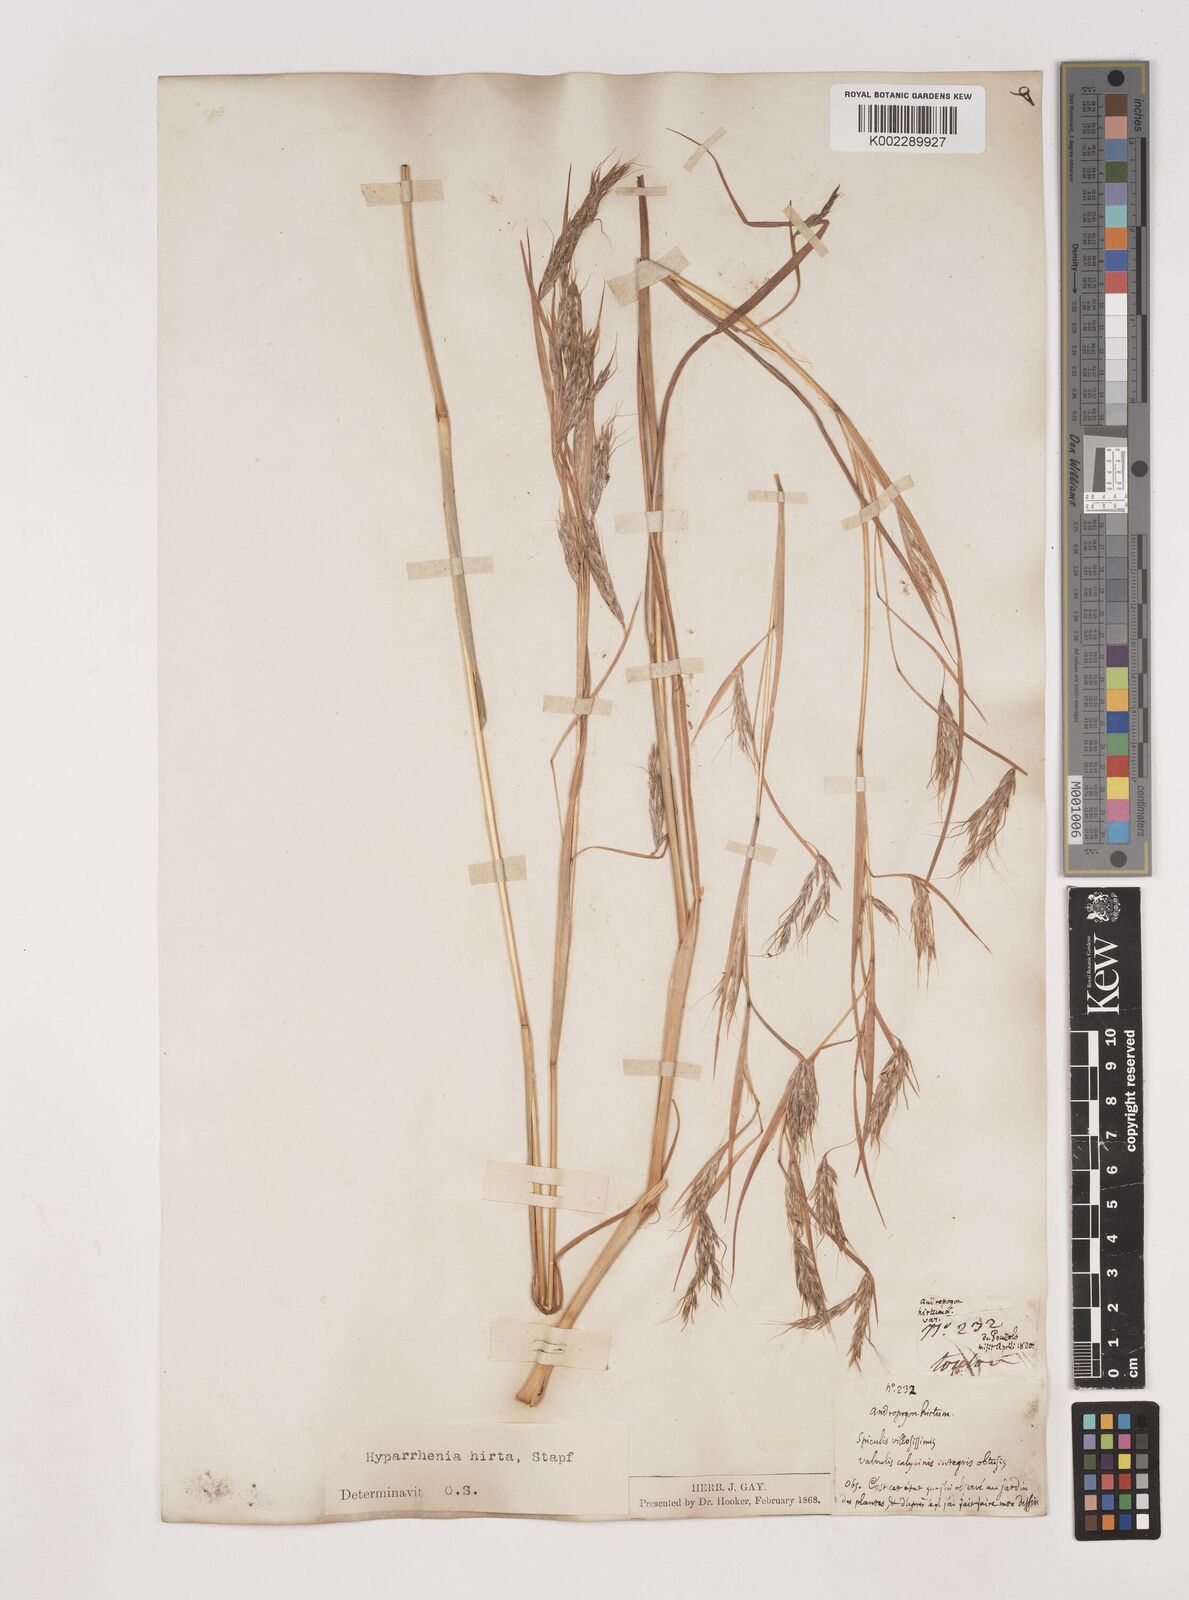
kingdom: Plantae
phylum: Tracheophyta
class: Liliopsida
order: Poales
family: Poaceae
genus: Hyparrhenia
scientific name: Hyparrhenia hirta
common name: Thatching grass
